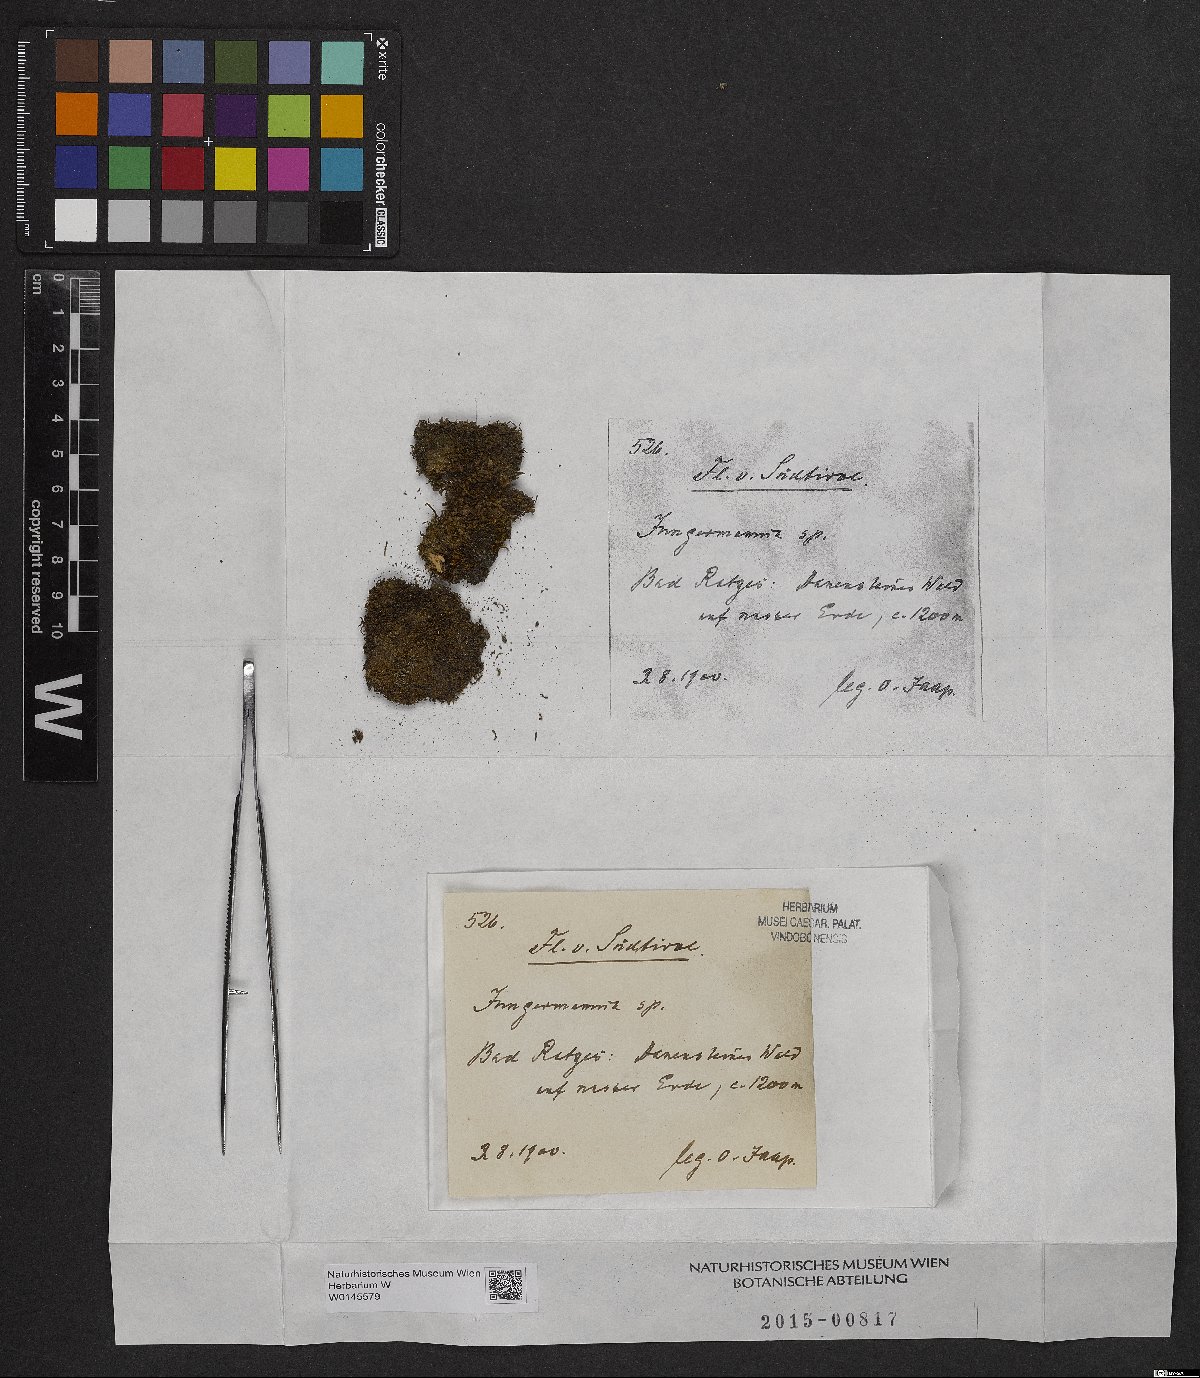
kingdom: Plantae
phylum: Marchantiophyta
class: Jungermanniopsida
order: Jungermanniales
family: Jungermanniaceae
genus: Jungermannia
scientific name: Jungermannia
